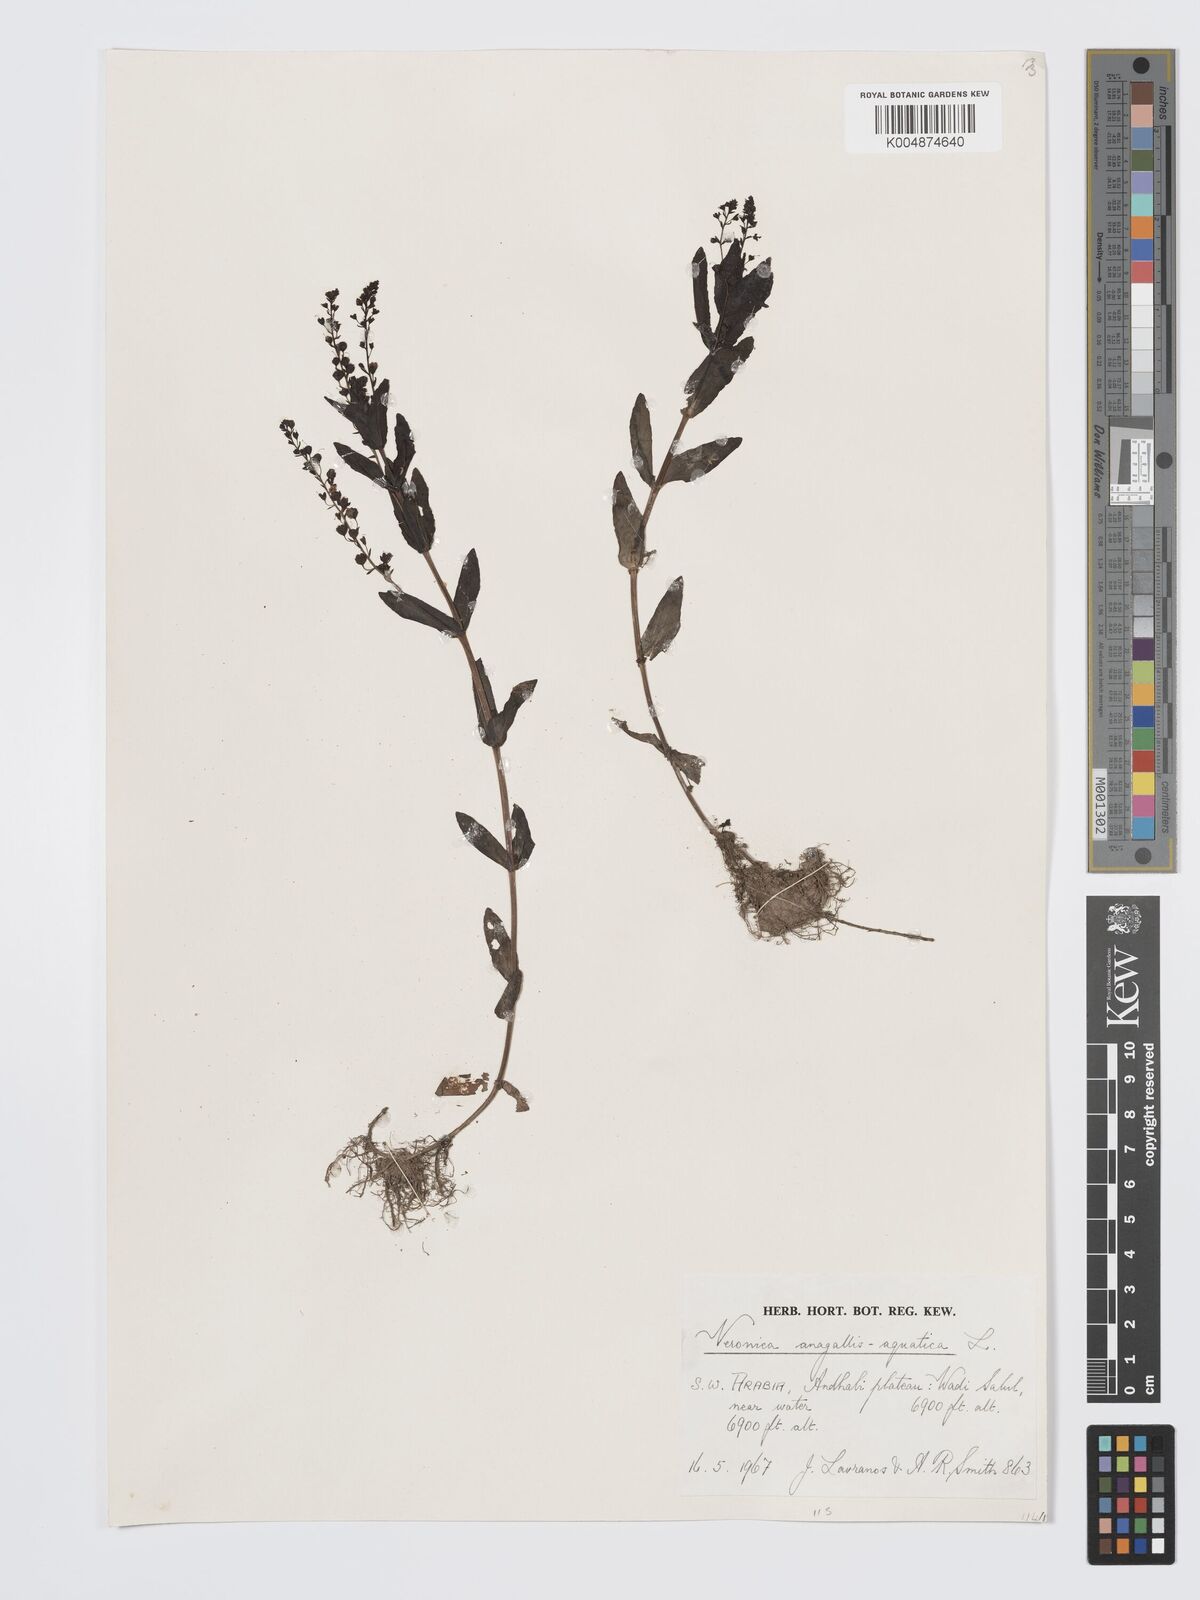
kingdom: Plantae
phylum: Tracheophyta
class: Magnoliopsida
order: Lamiales
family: Plantaginaceae
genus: Veronica
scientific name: Veronica
